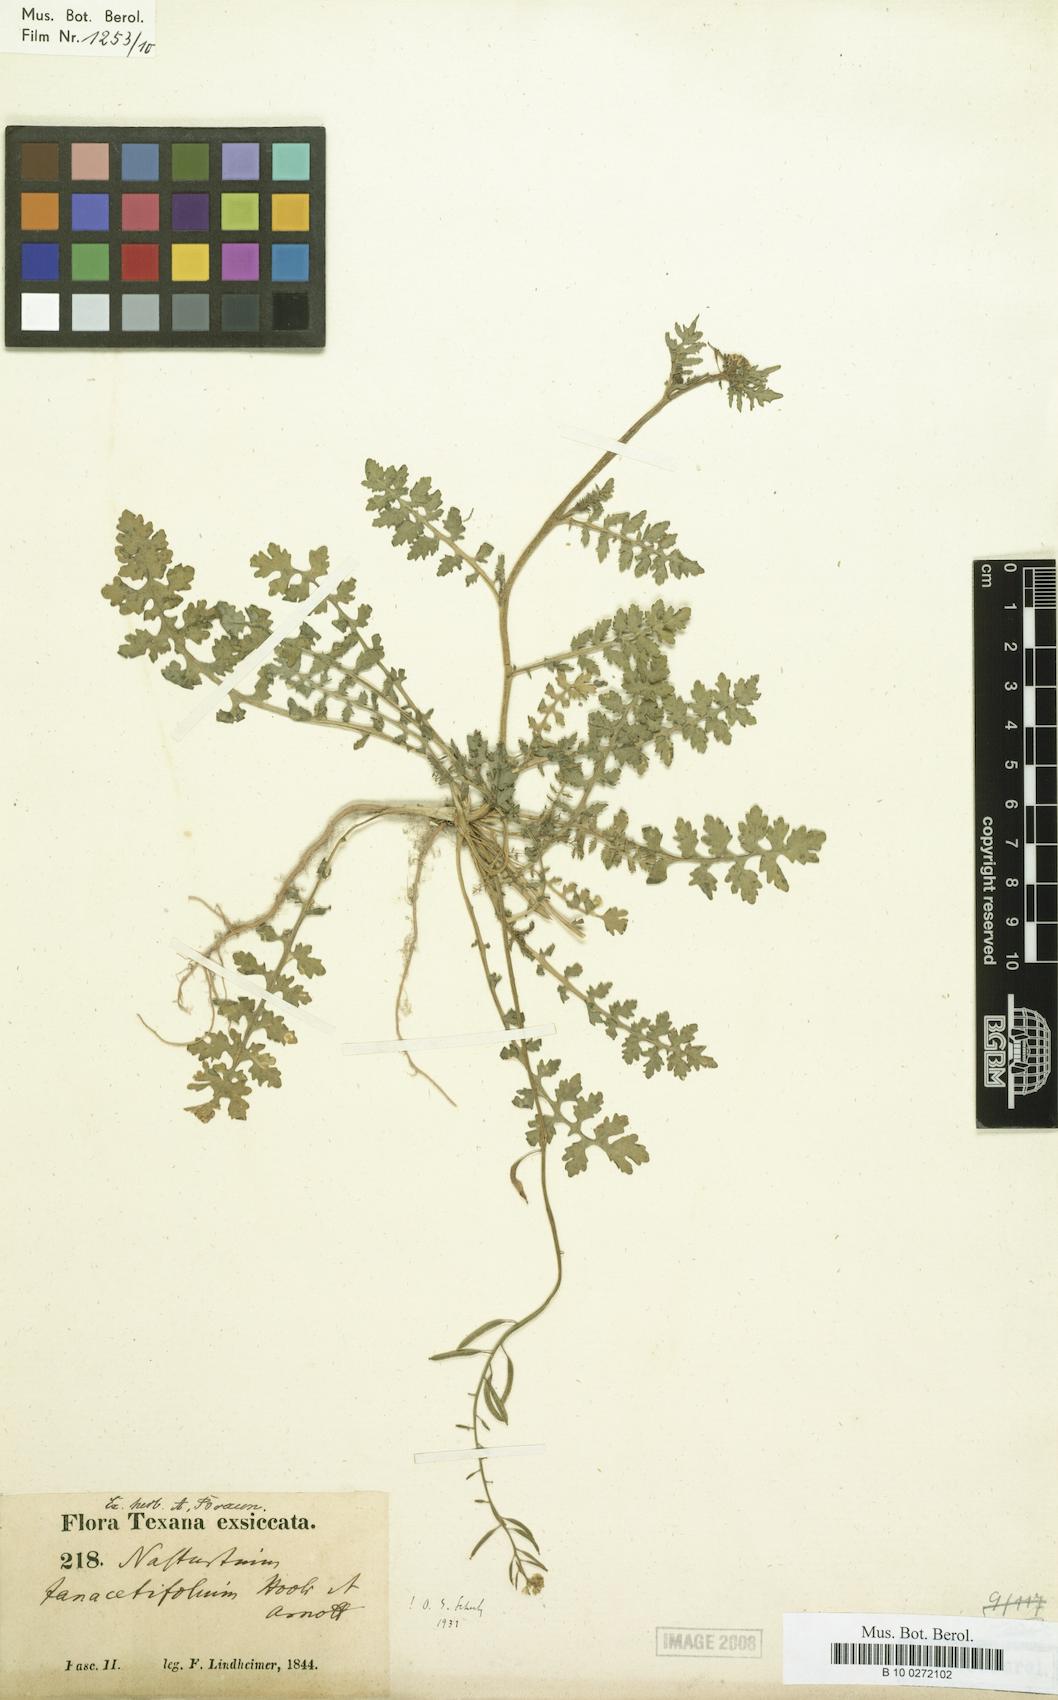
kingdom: Plantae
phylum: Tracheophyta
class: Magnoliopsida
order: Brassicales
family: Brassicaceae
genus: Rorippa
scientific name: Rorippa teres
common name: Southern marsh yellowcress
